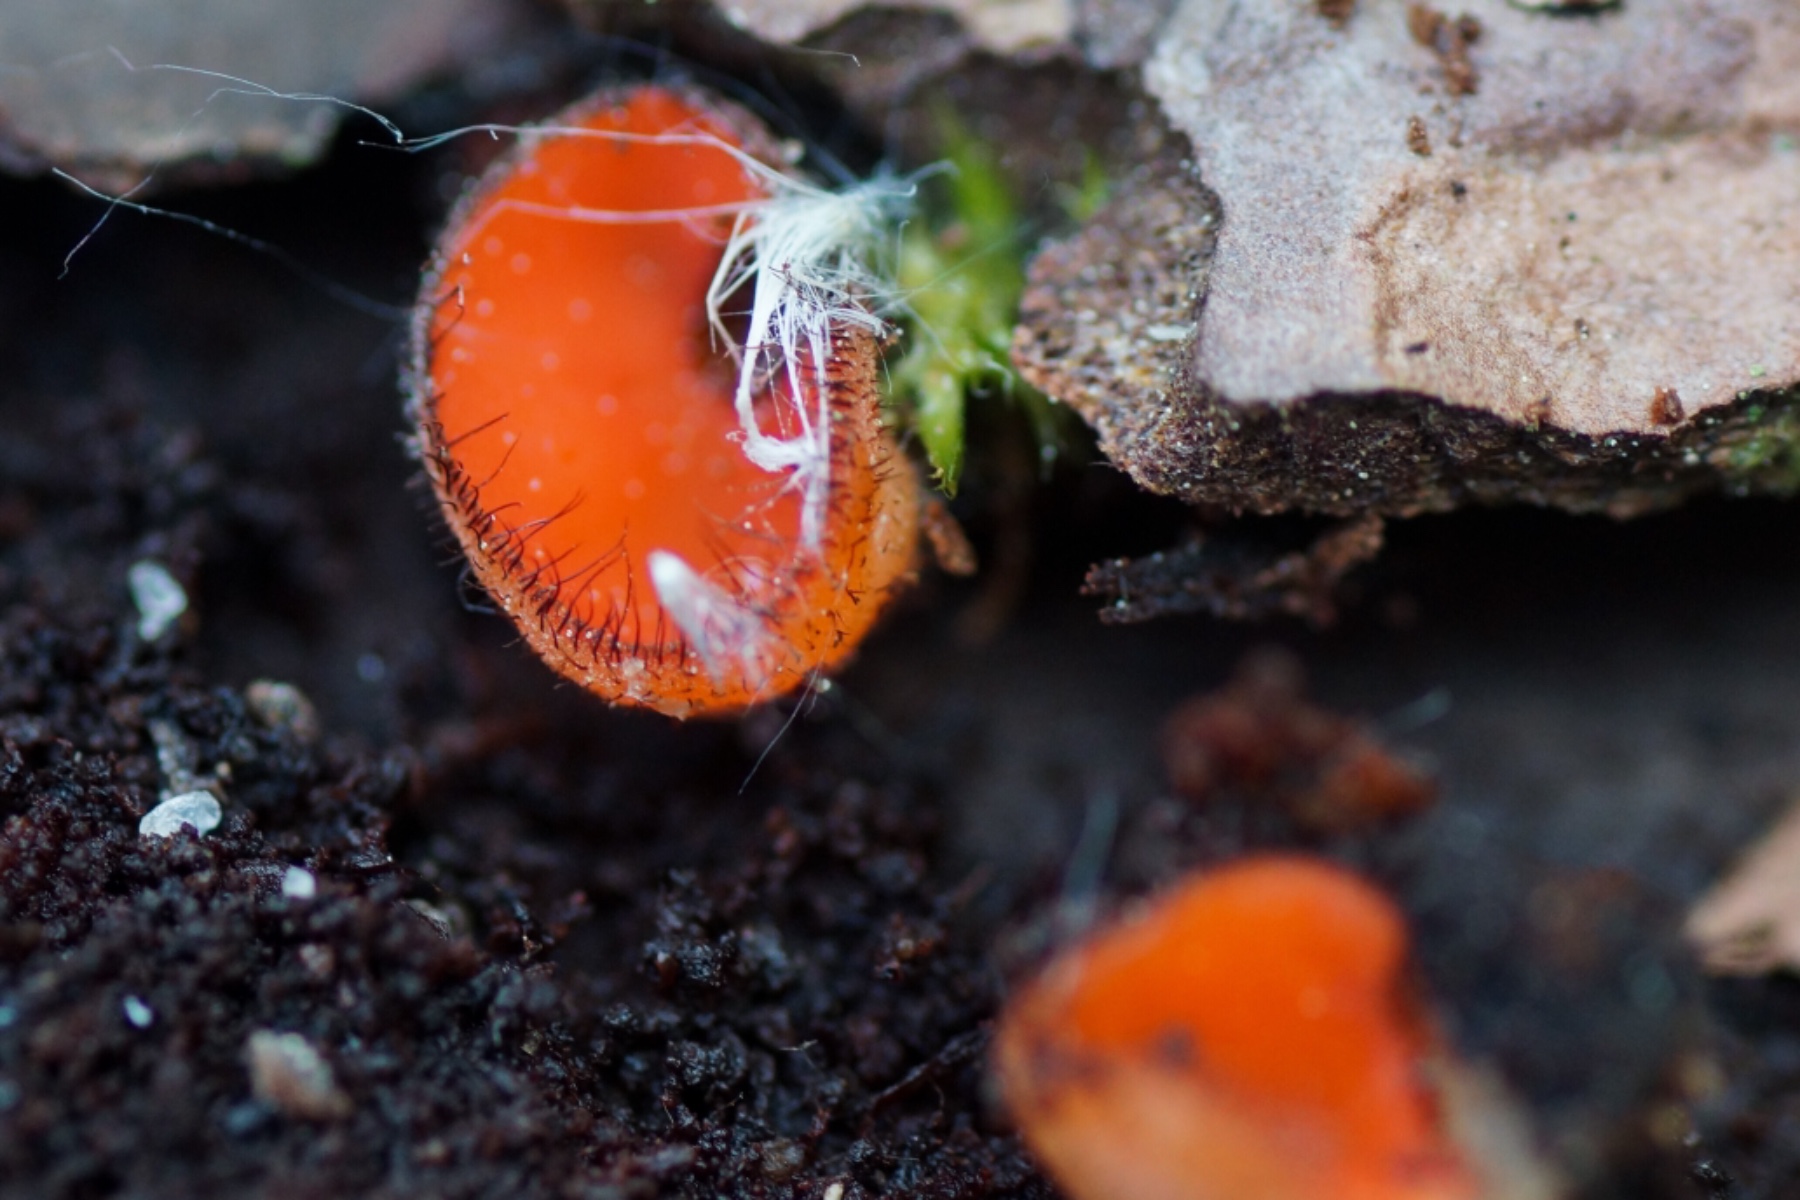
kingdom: Fungi
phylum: Ascomycota
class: Pezizomycetes
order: Pezizales
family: Pyronemataceae
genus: Scutellinia
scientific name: Scutellinia scutellata
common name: frynset skjoldbæger
